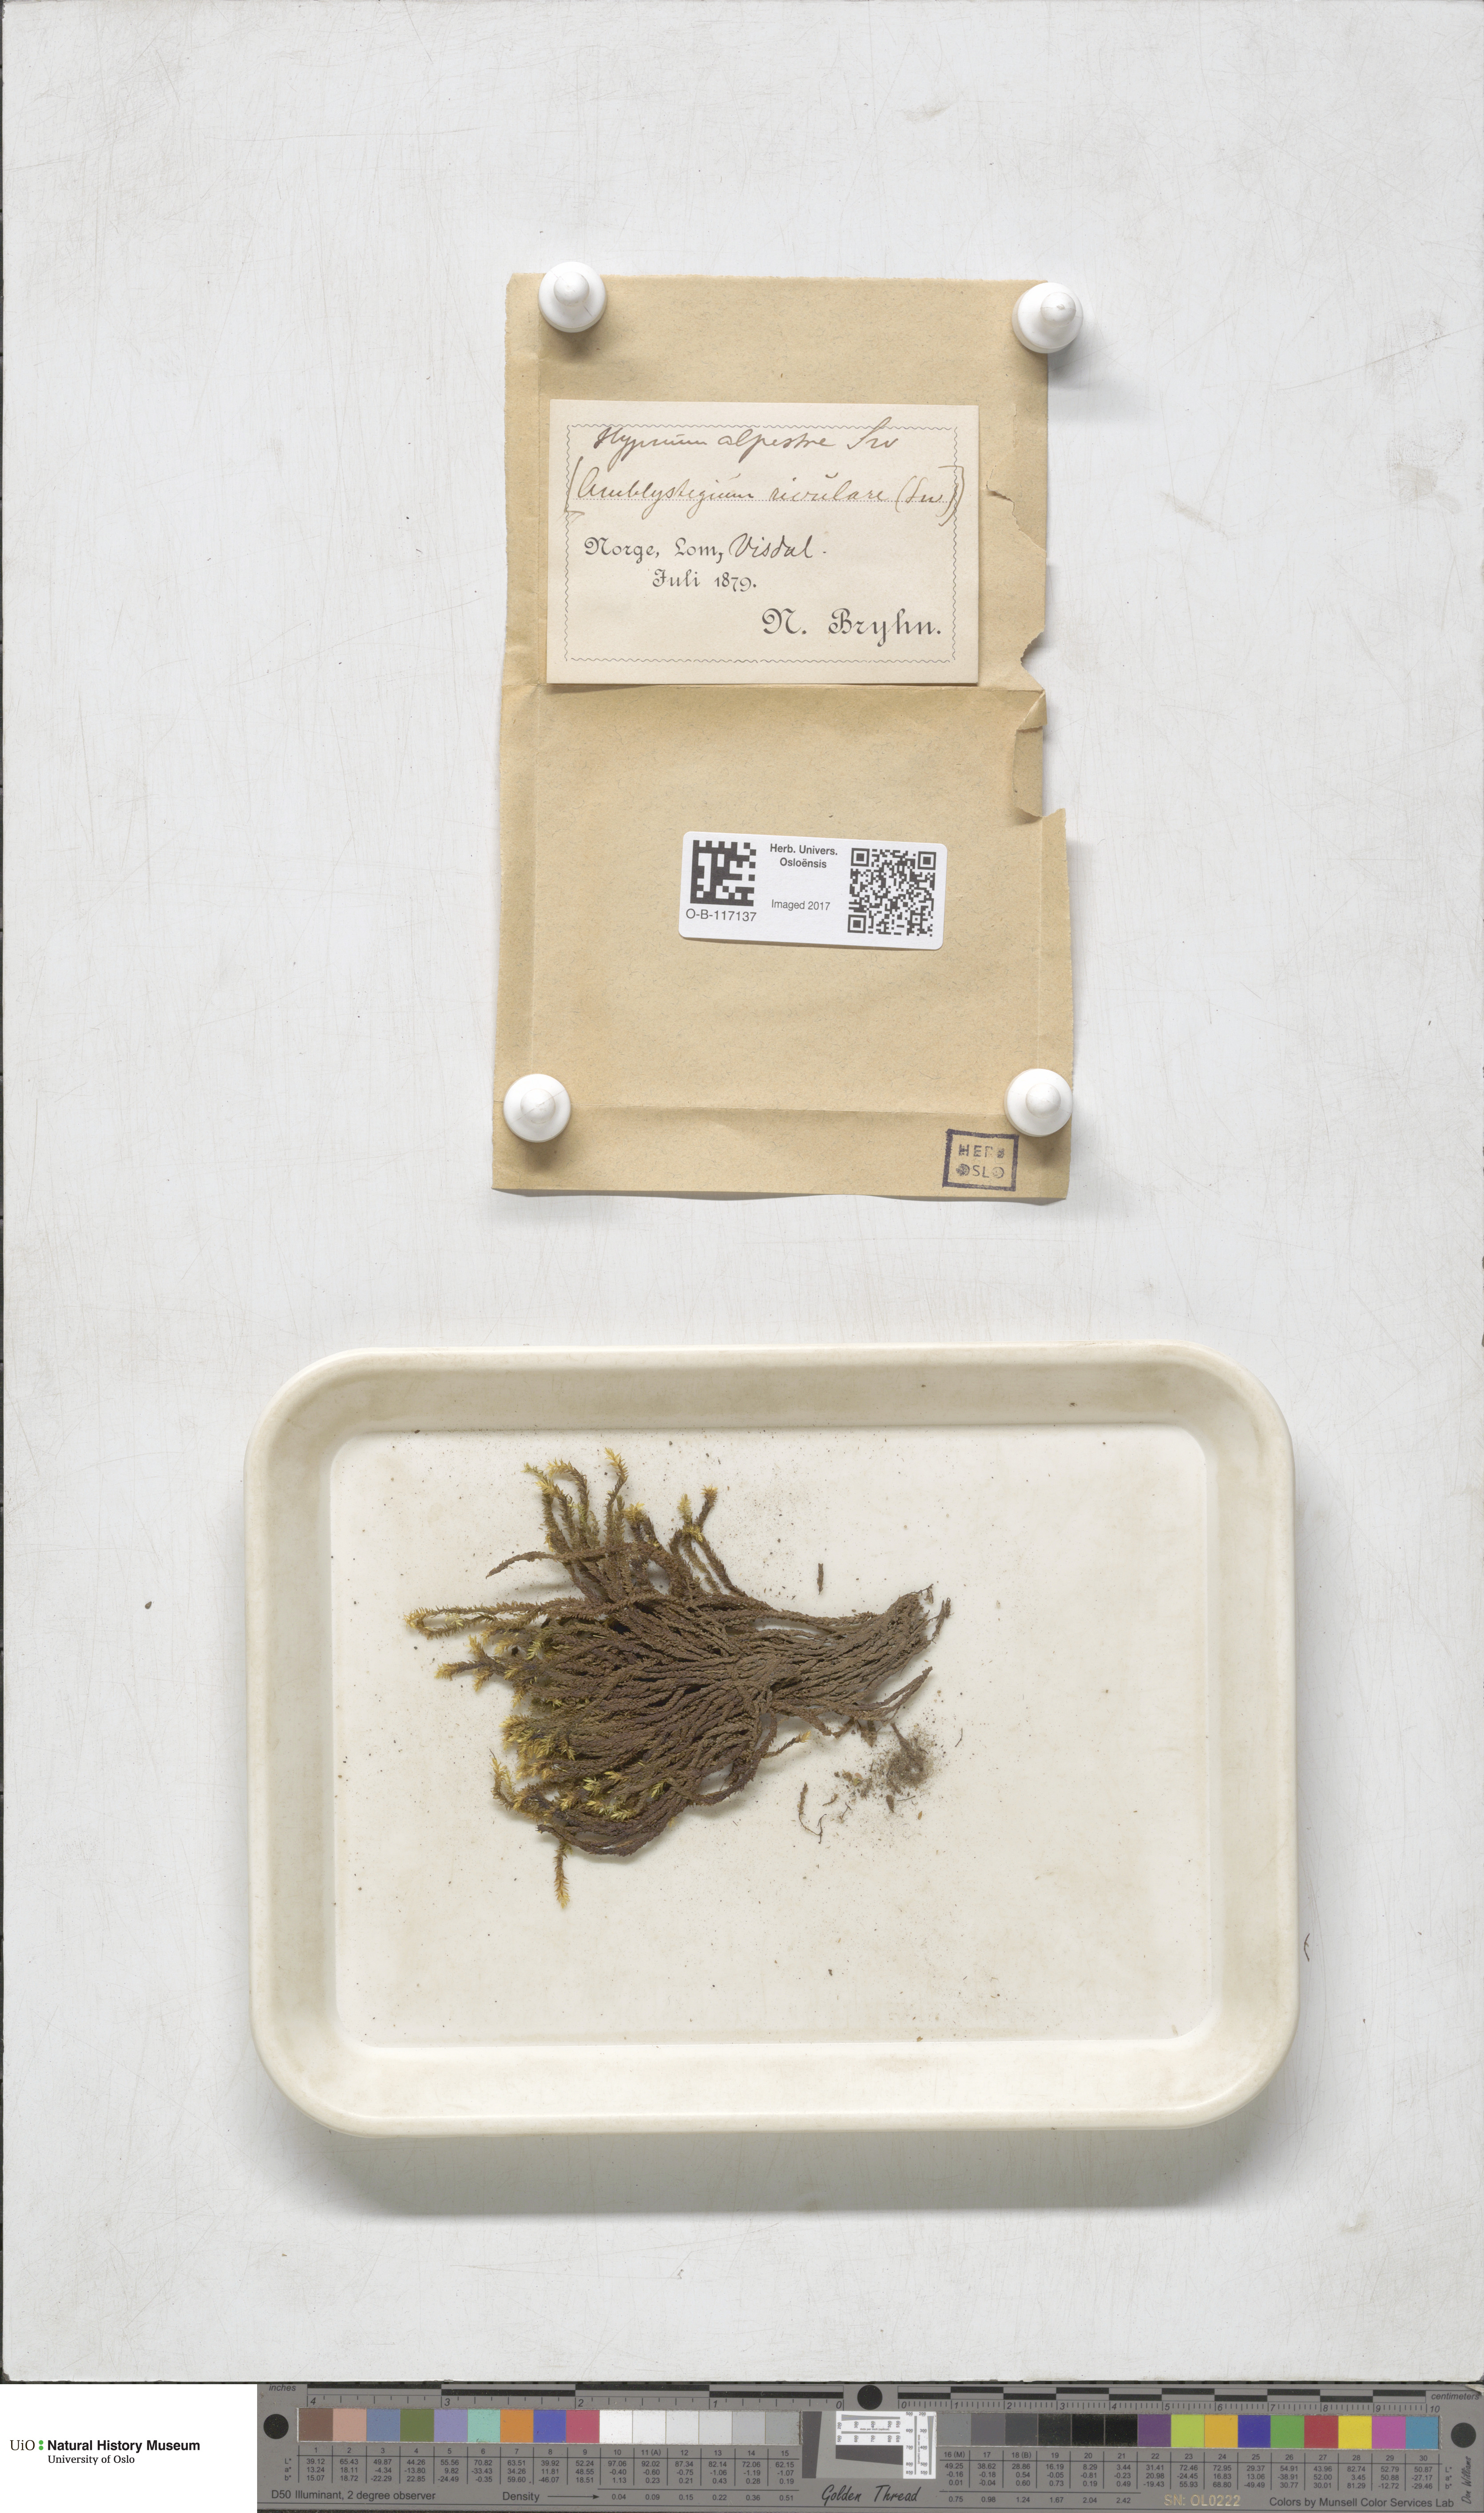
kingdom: Plantae
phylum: Bryophyta
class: Bryopsida
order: Hypnales
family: Amblystegiaceae
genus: Platyhypnum
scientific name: Platyhypnum alpestre
